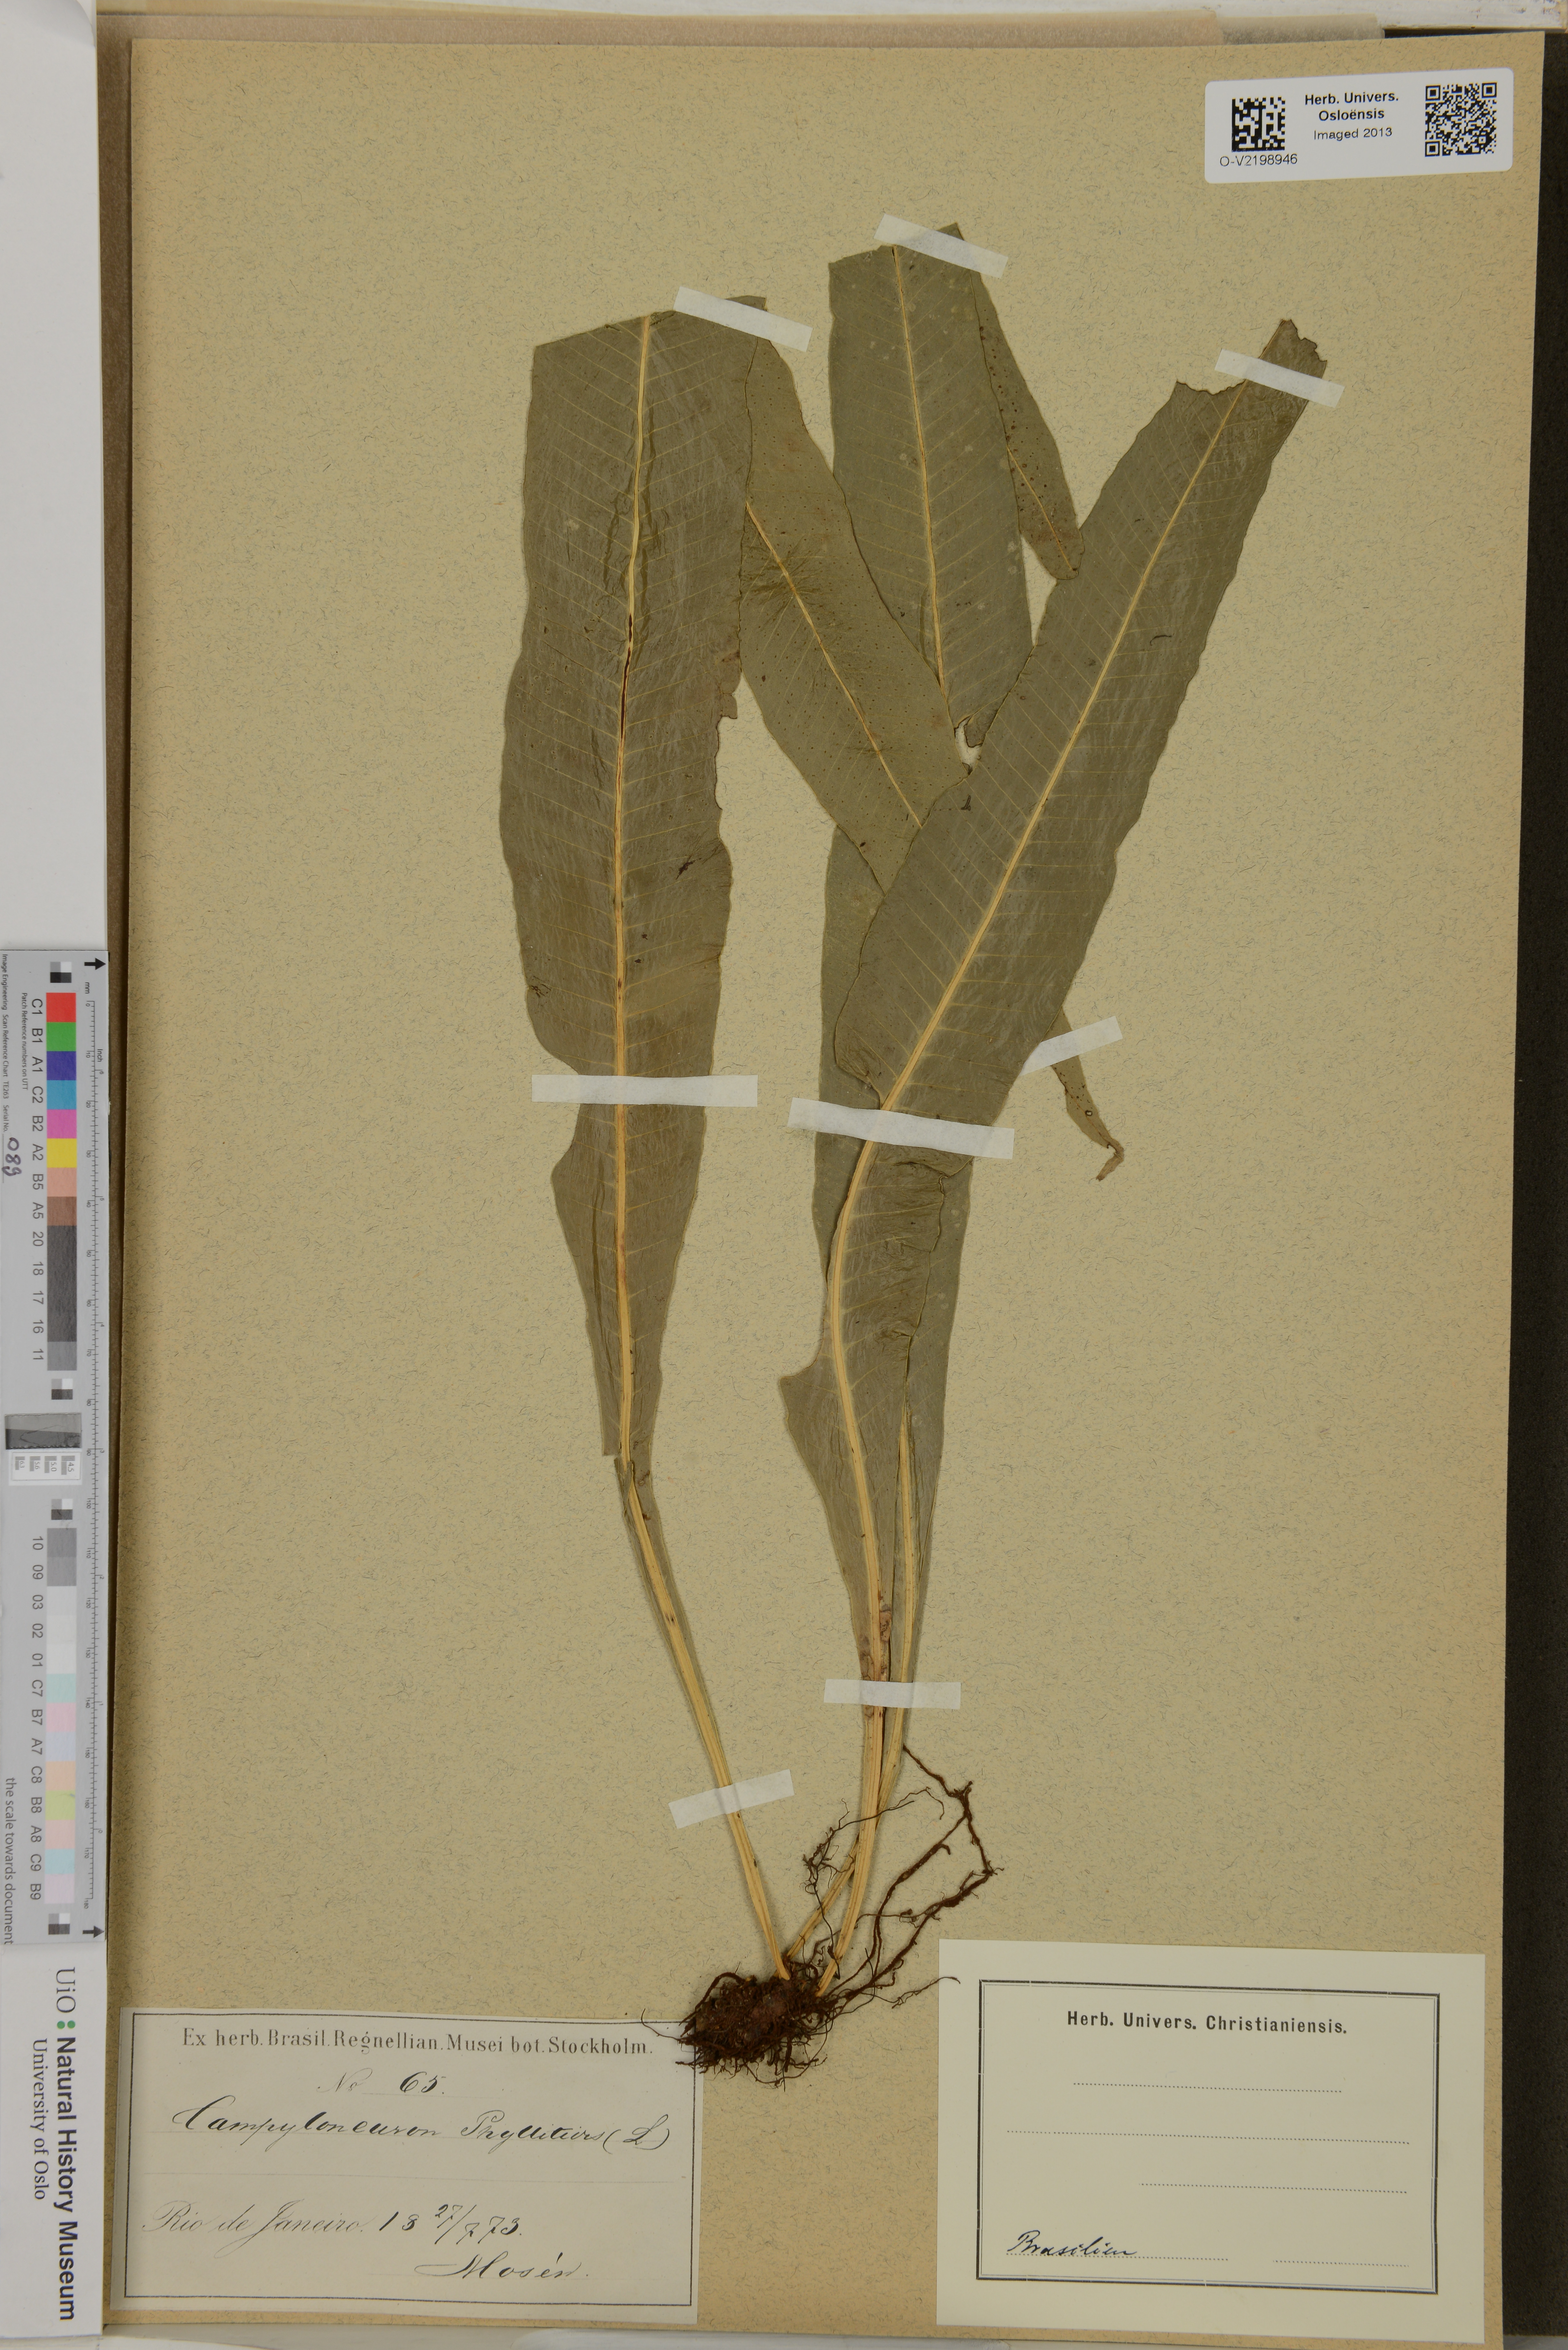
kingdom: Plantae
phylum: Tracheophyta
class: Polypodiopsida
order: Polypodiales
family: Polypodiaceae
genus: Polypodium
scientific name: Polypodium phyllitidis
